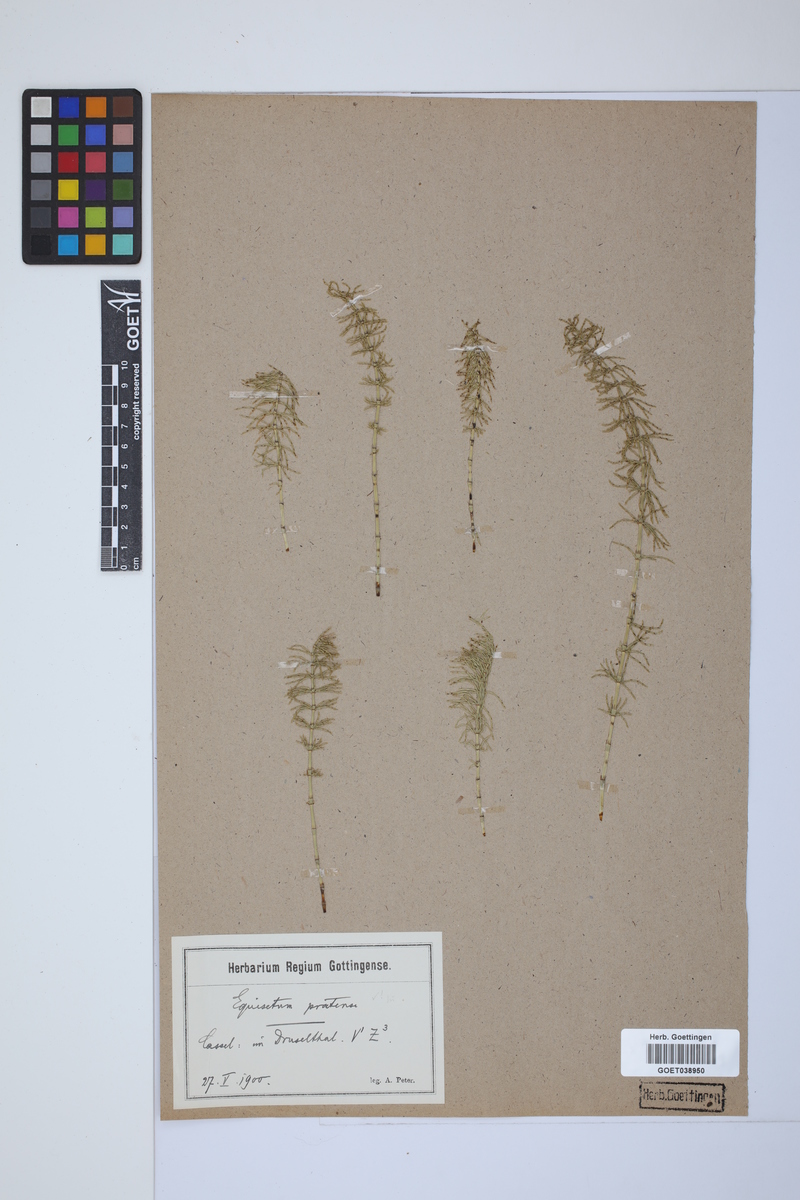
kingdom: Plantae
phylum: Tracheophyta
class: Polypodiopsida
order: Equisetales
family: Equisetaceae
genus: Equisetum
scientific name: Equisetum pratense
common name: Meadow horsetail
